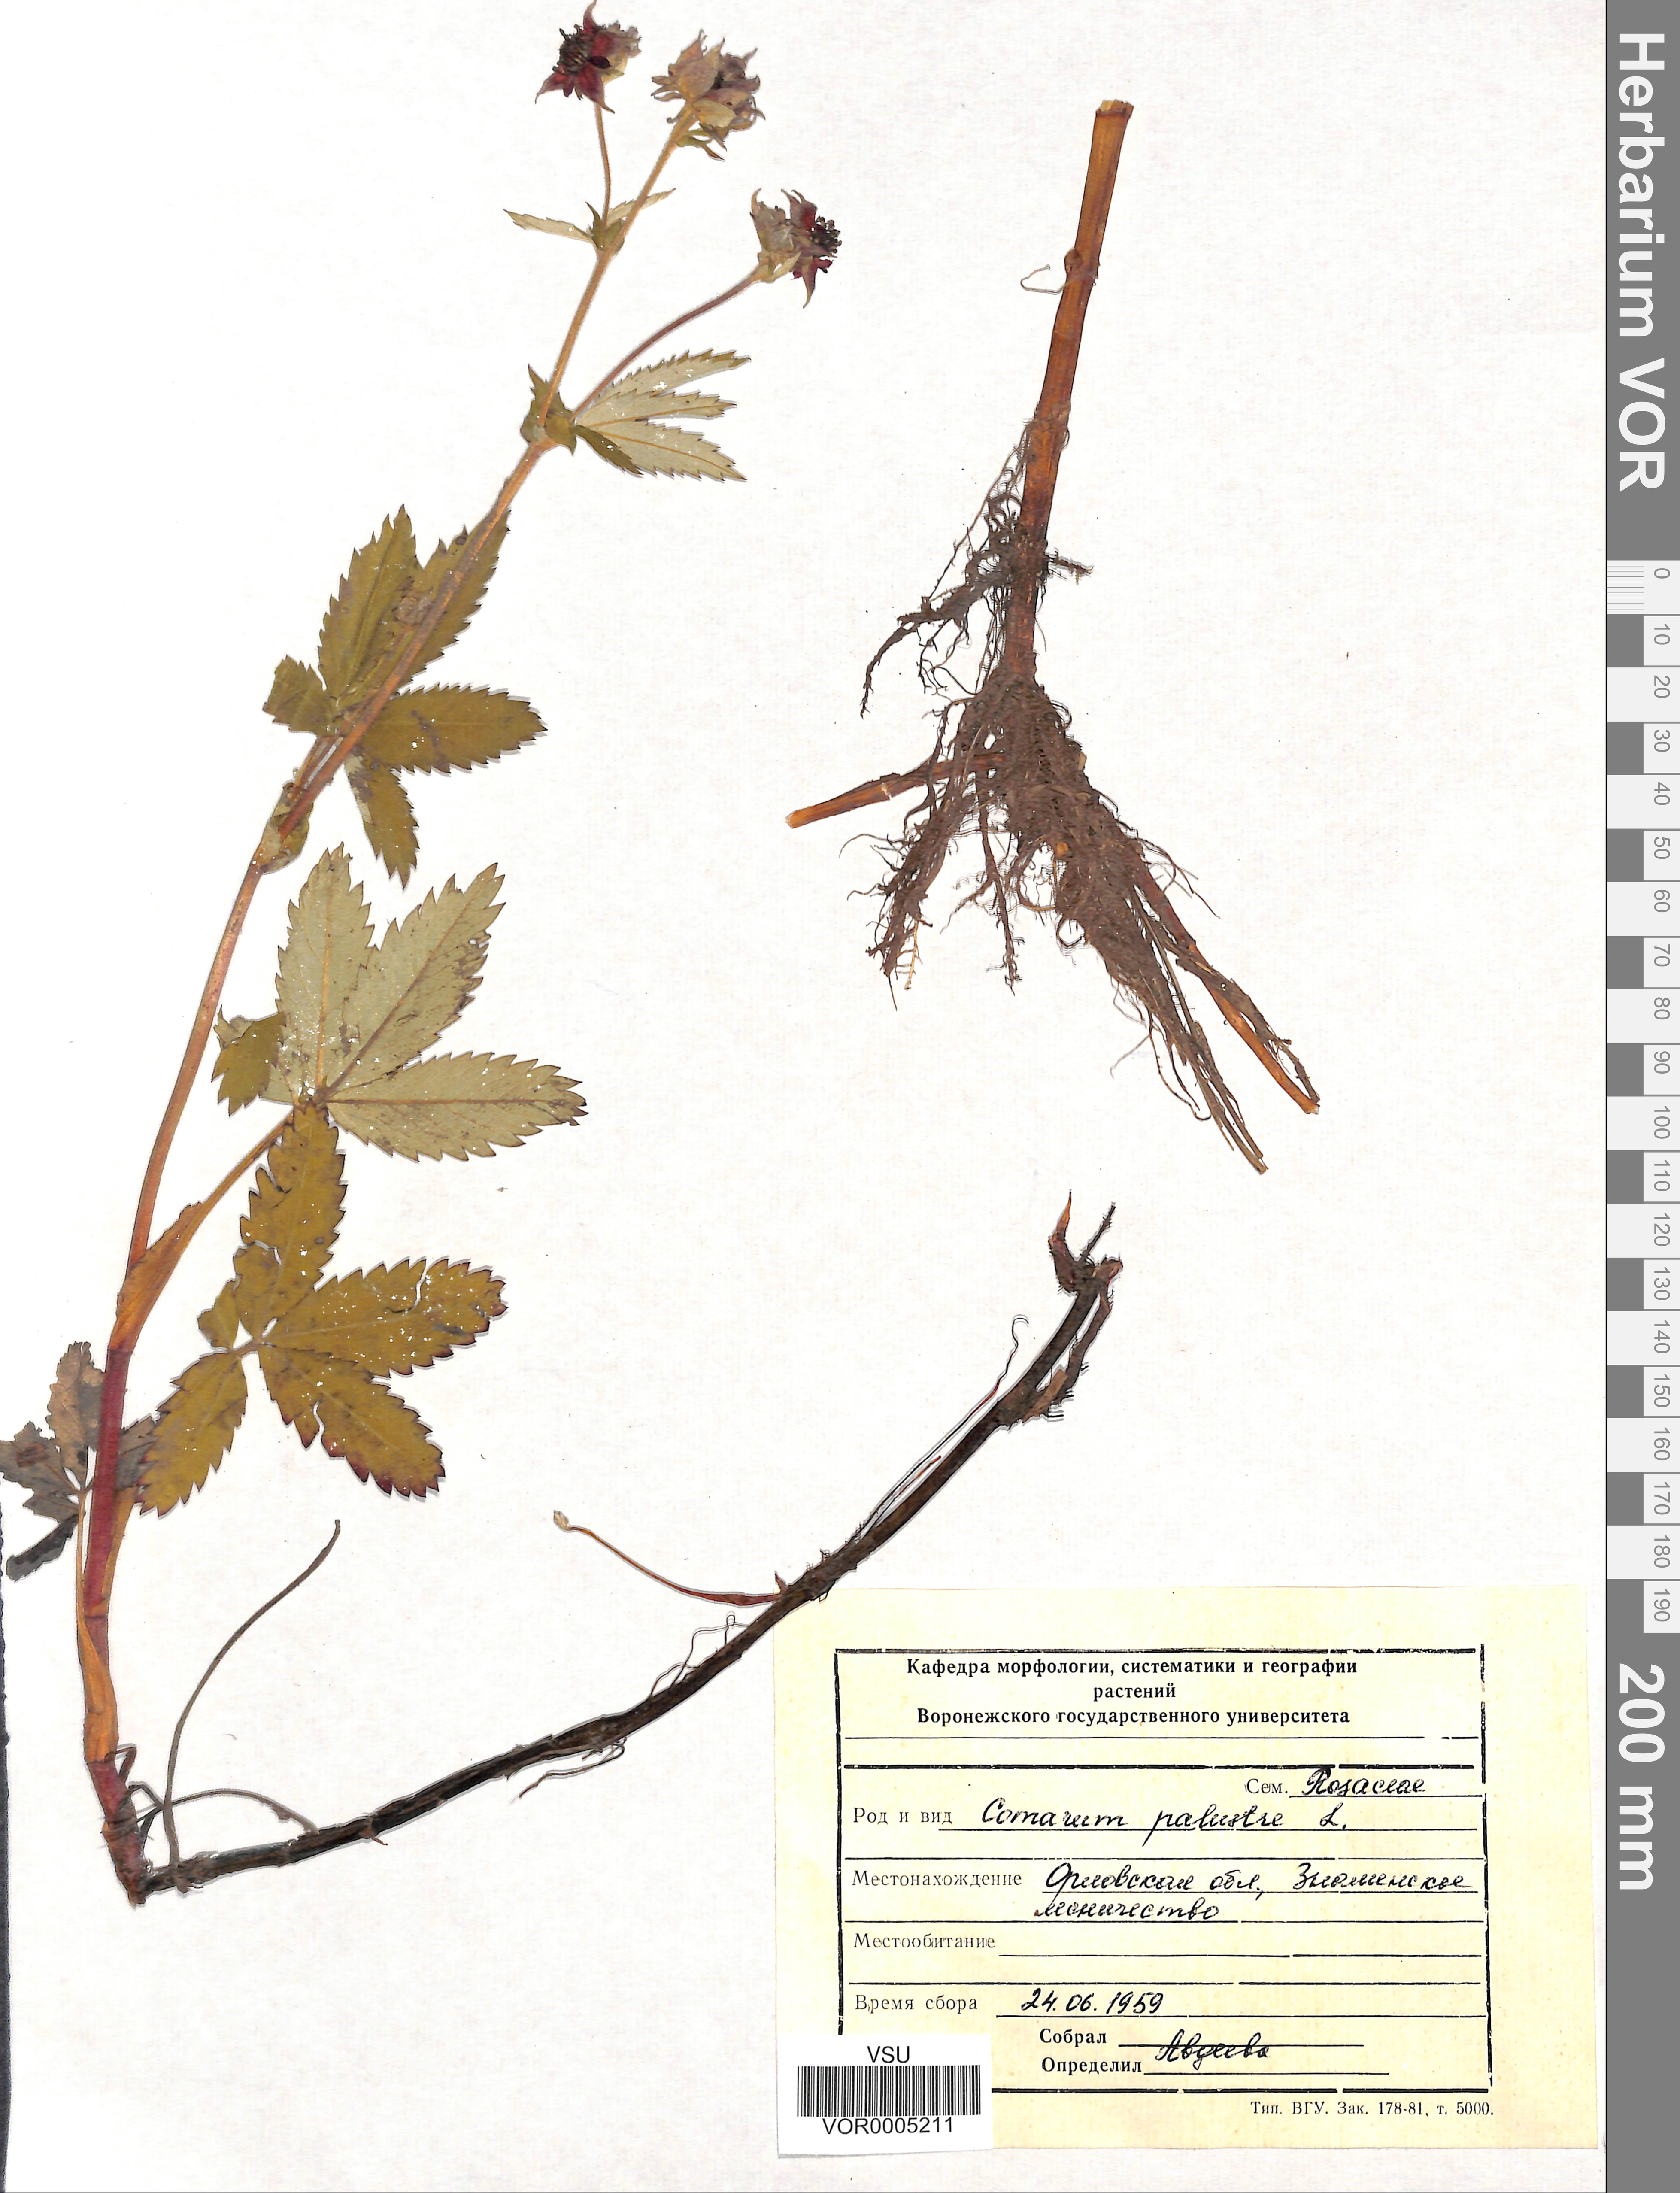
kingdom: Plantae
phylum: Tracheophyta
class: Magnoliopsida
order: Rosales
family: Rosaceae
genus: Comarum
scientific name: Comarum palustre
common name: Marsh cinquefoil
